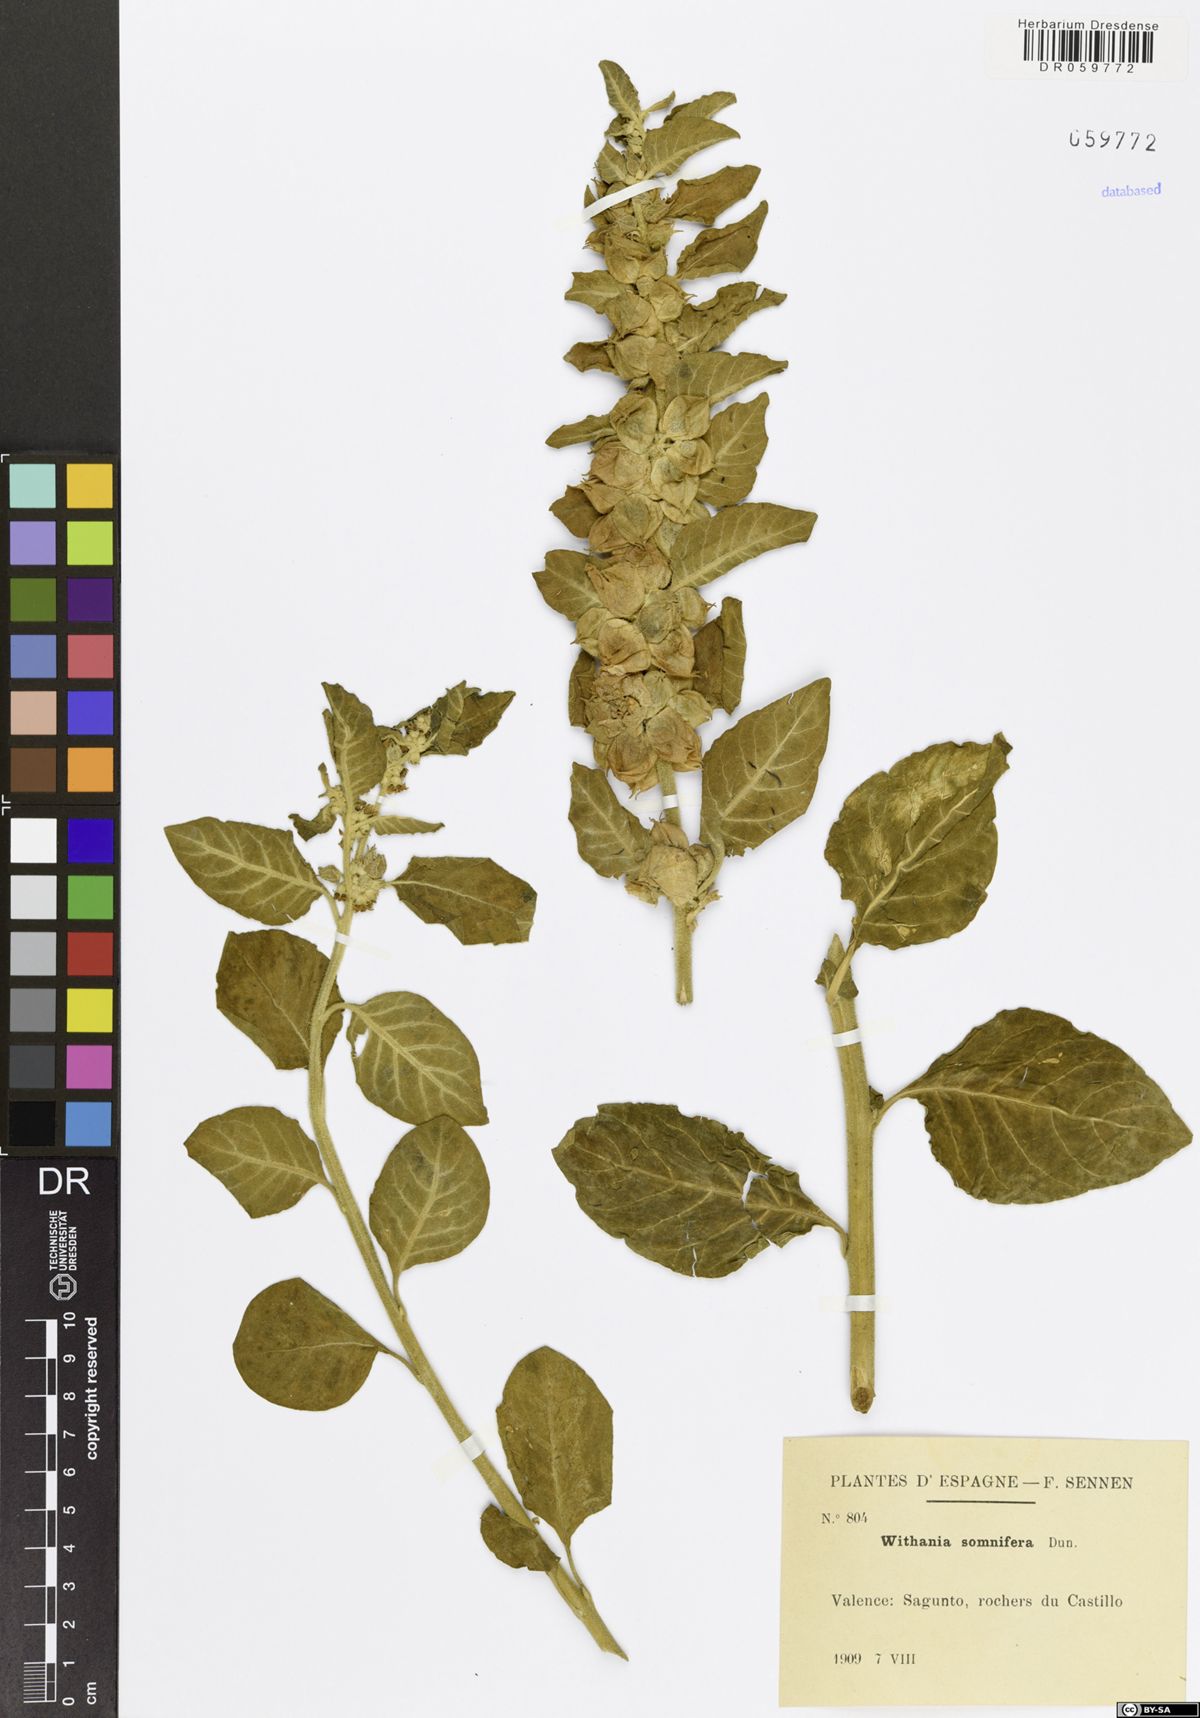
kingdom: Plantae
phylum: Tracheophyta
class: Magnoliopsida
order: Solanales
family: Solanaceae
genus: Withania
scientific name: Withania somnifera
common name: Winter-cherry
